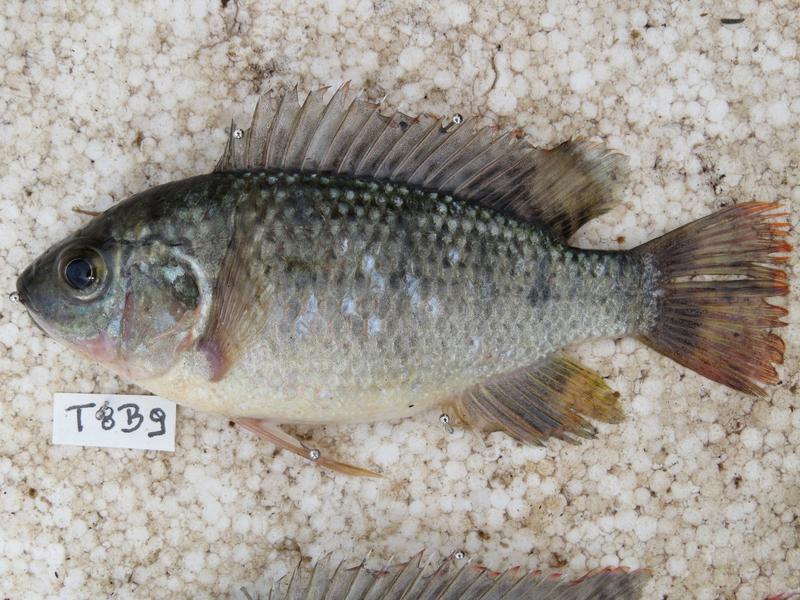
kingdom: Animalia
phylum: Chordata
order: Perciformes
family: Cichlidae
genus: Oreochromis
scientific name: Oreochromis shiranus
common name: Chilwa tilapia
